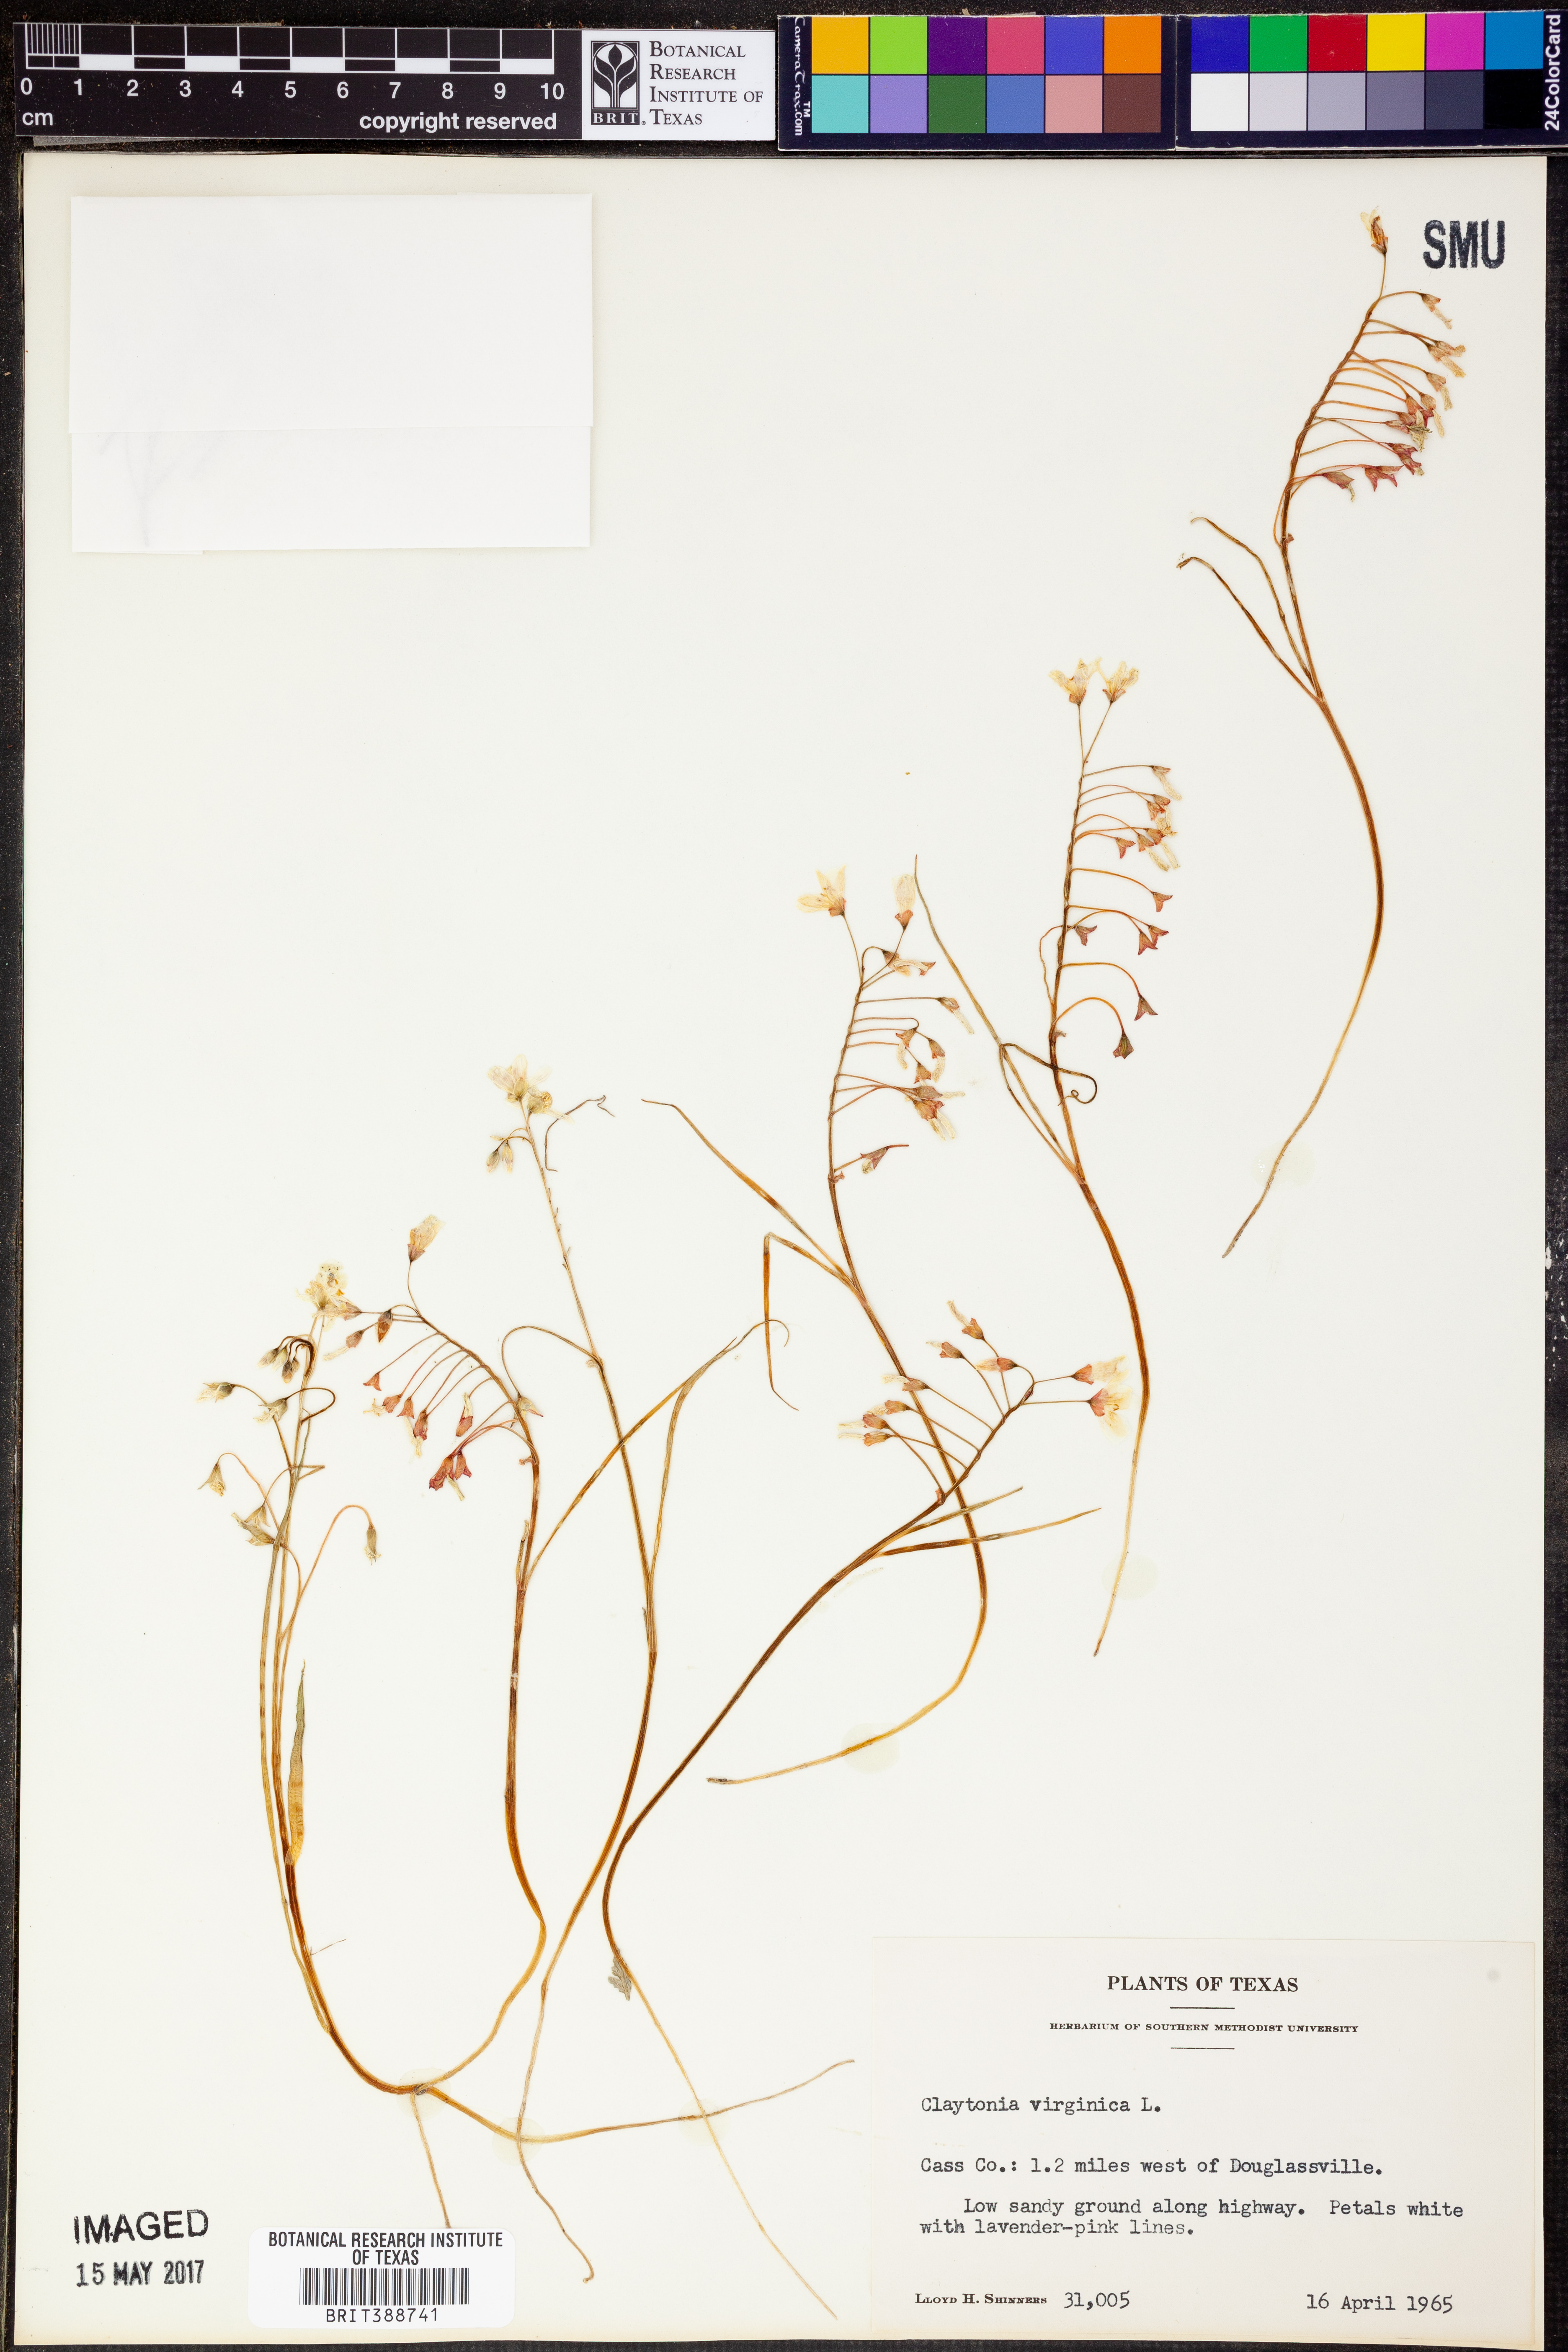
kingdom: Plantae
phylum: Tracheophyta
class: Magnoliopsida
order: Caryophyllales
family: Montiaceae
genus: Claytonia
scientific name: Claytonia virginica
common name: Virginia springbeauty
